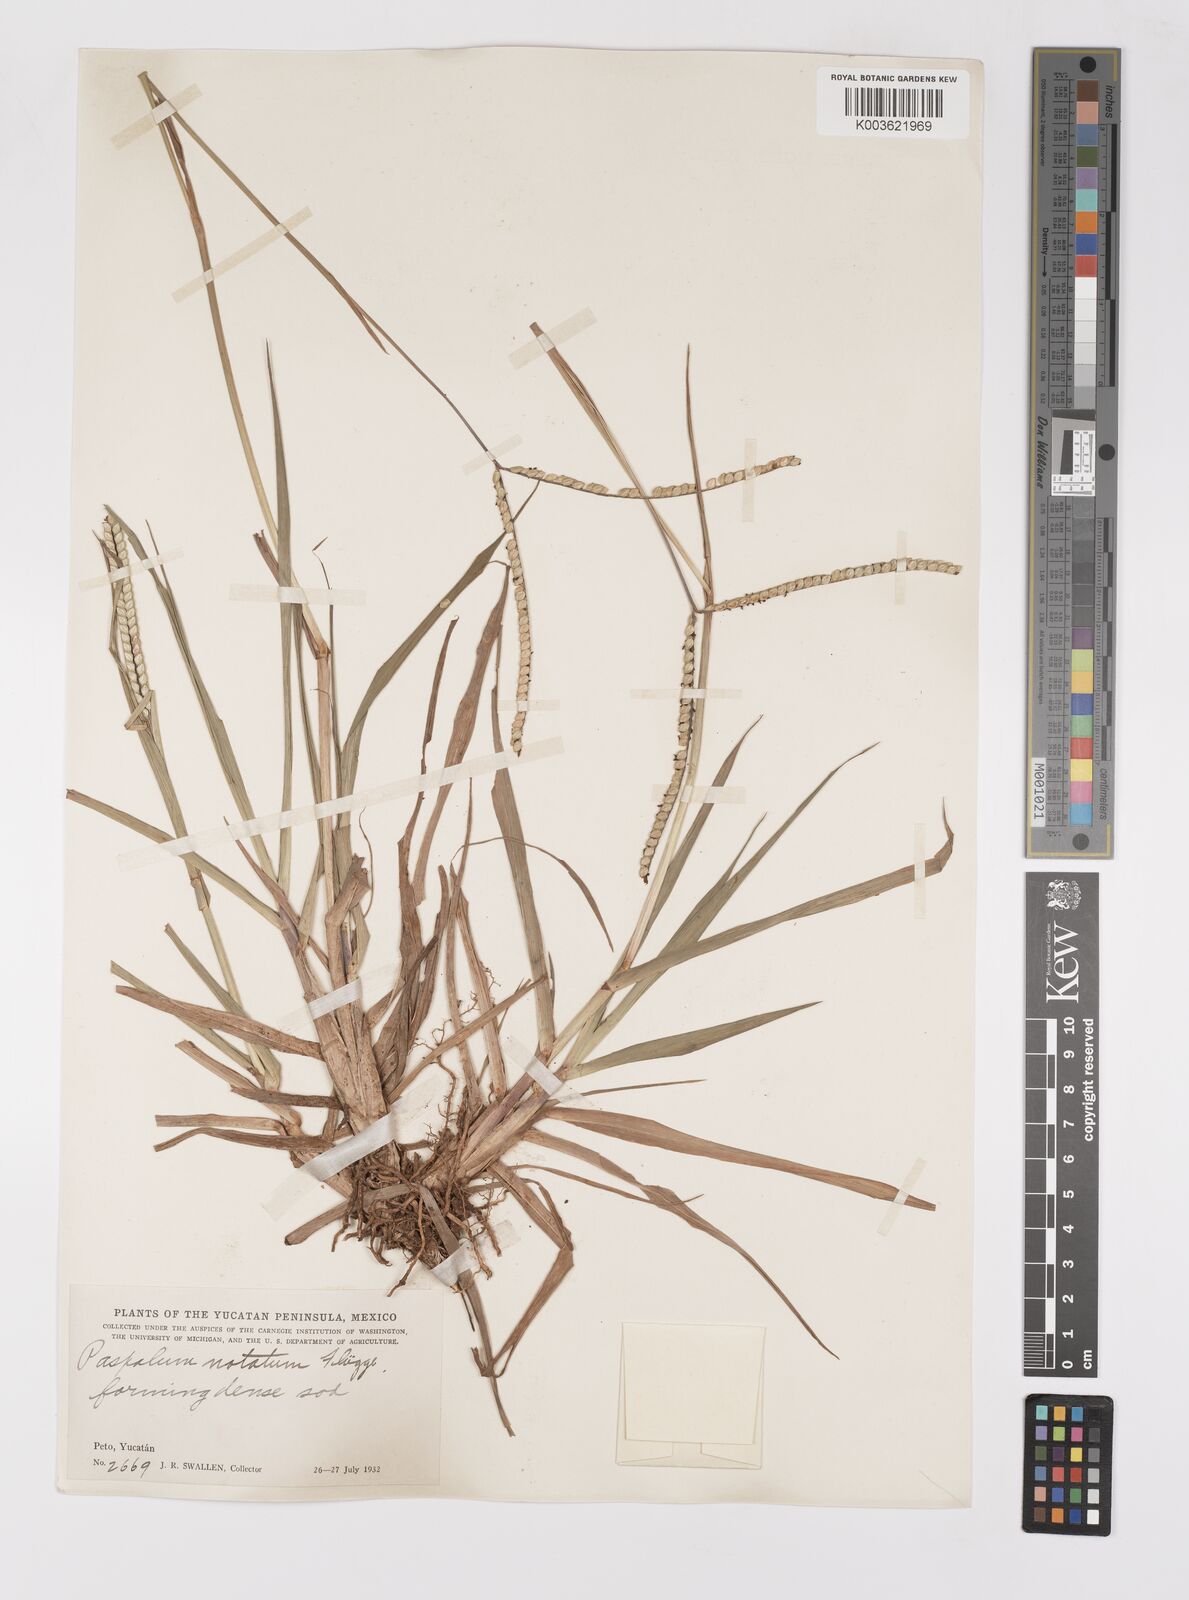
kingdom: Plantae
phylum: Tracheophyta
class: Liliopsida
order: Poales
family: Poaceae
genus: Paspalum
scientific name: Paspalum notatum
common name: Bahiagrass
